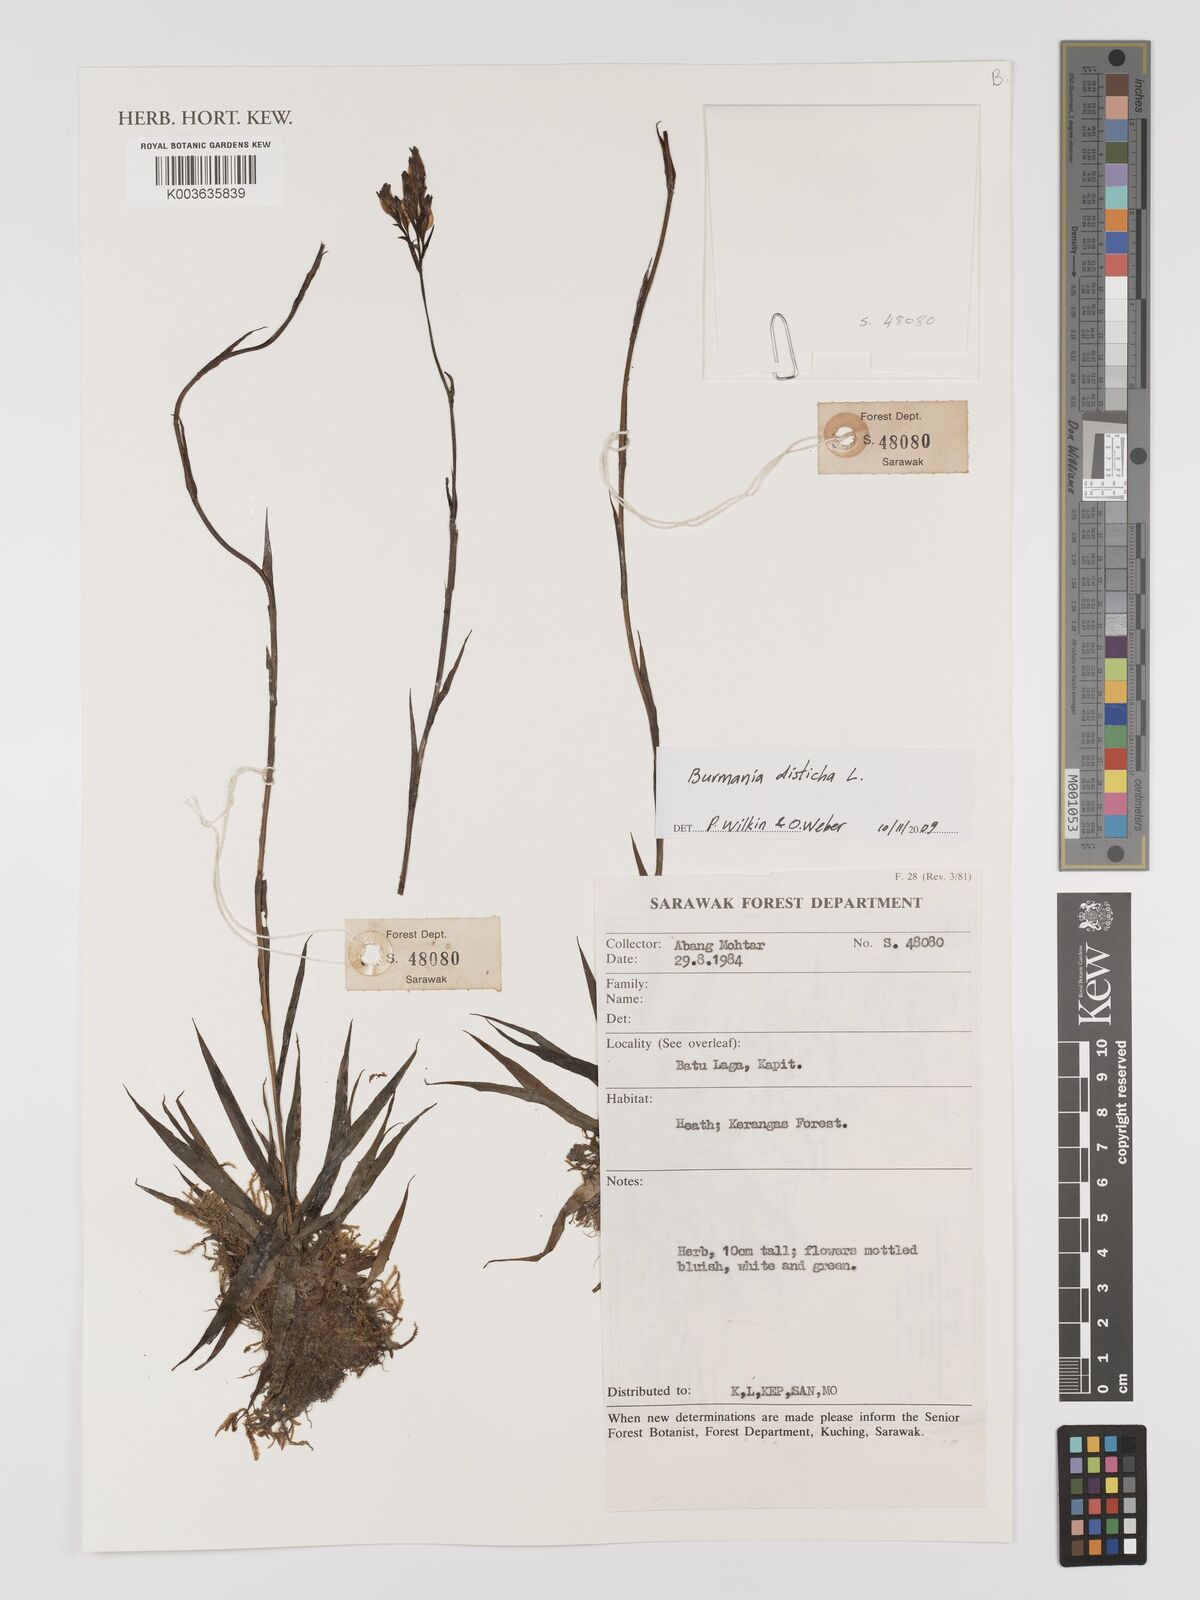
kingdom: Plantae
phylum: Tracheophyta
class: Liliopsida
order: Dioscoreales
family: Burmanniaceae
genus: Burmannia
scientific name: Burmannia disticha
